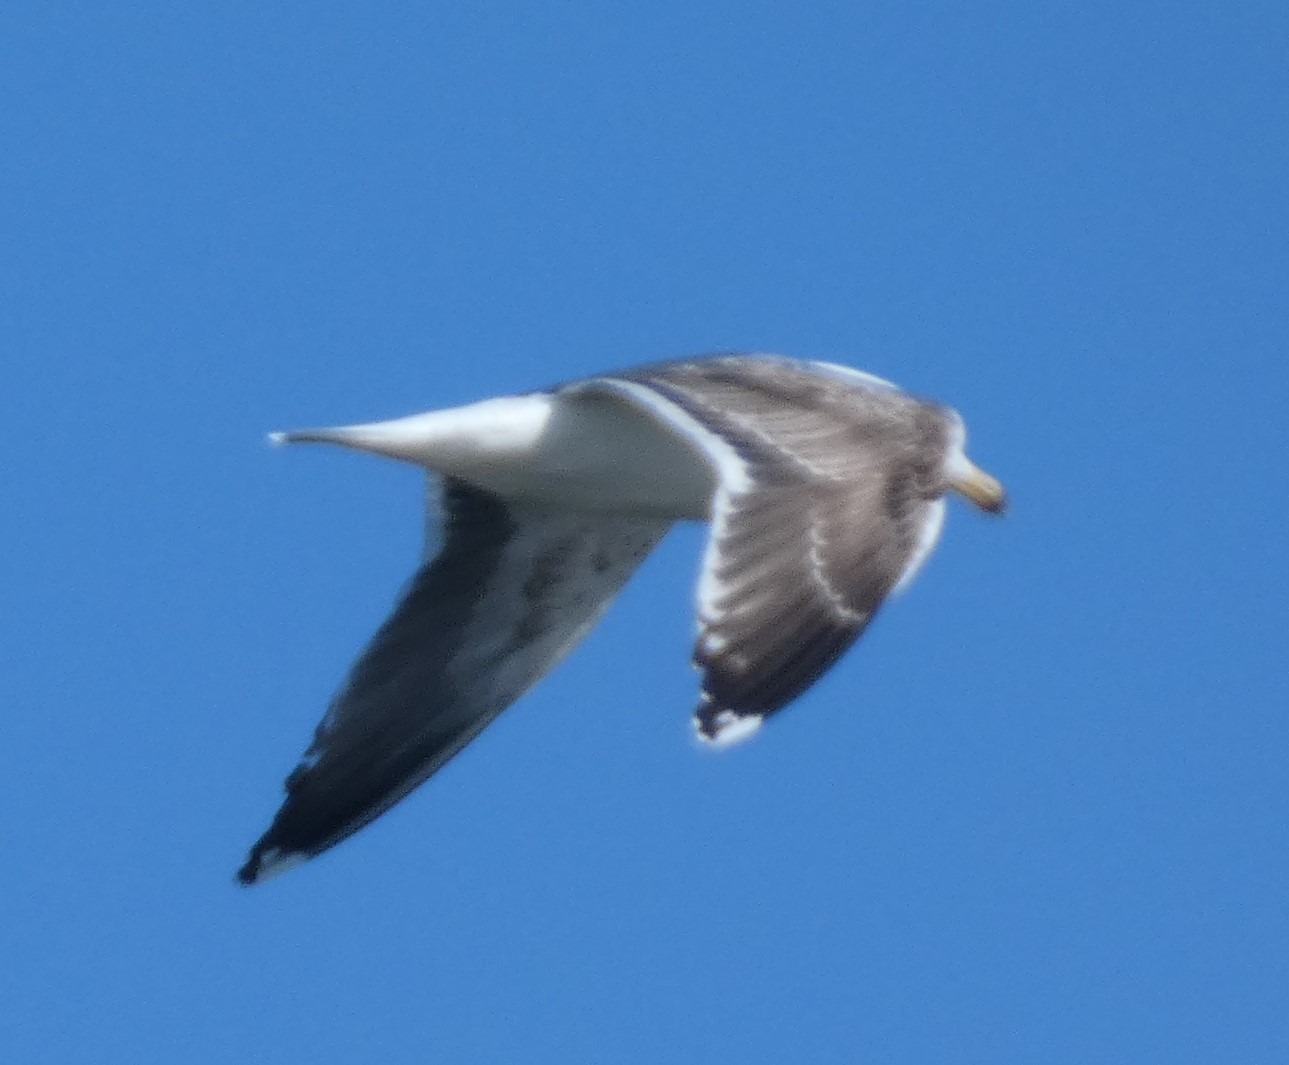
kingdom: Animalia
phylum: Chordata
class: Aves
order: Charadriiformes
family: Laridae
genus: Larus
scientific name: Larus marinus
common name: Svartbag
